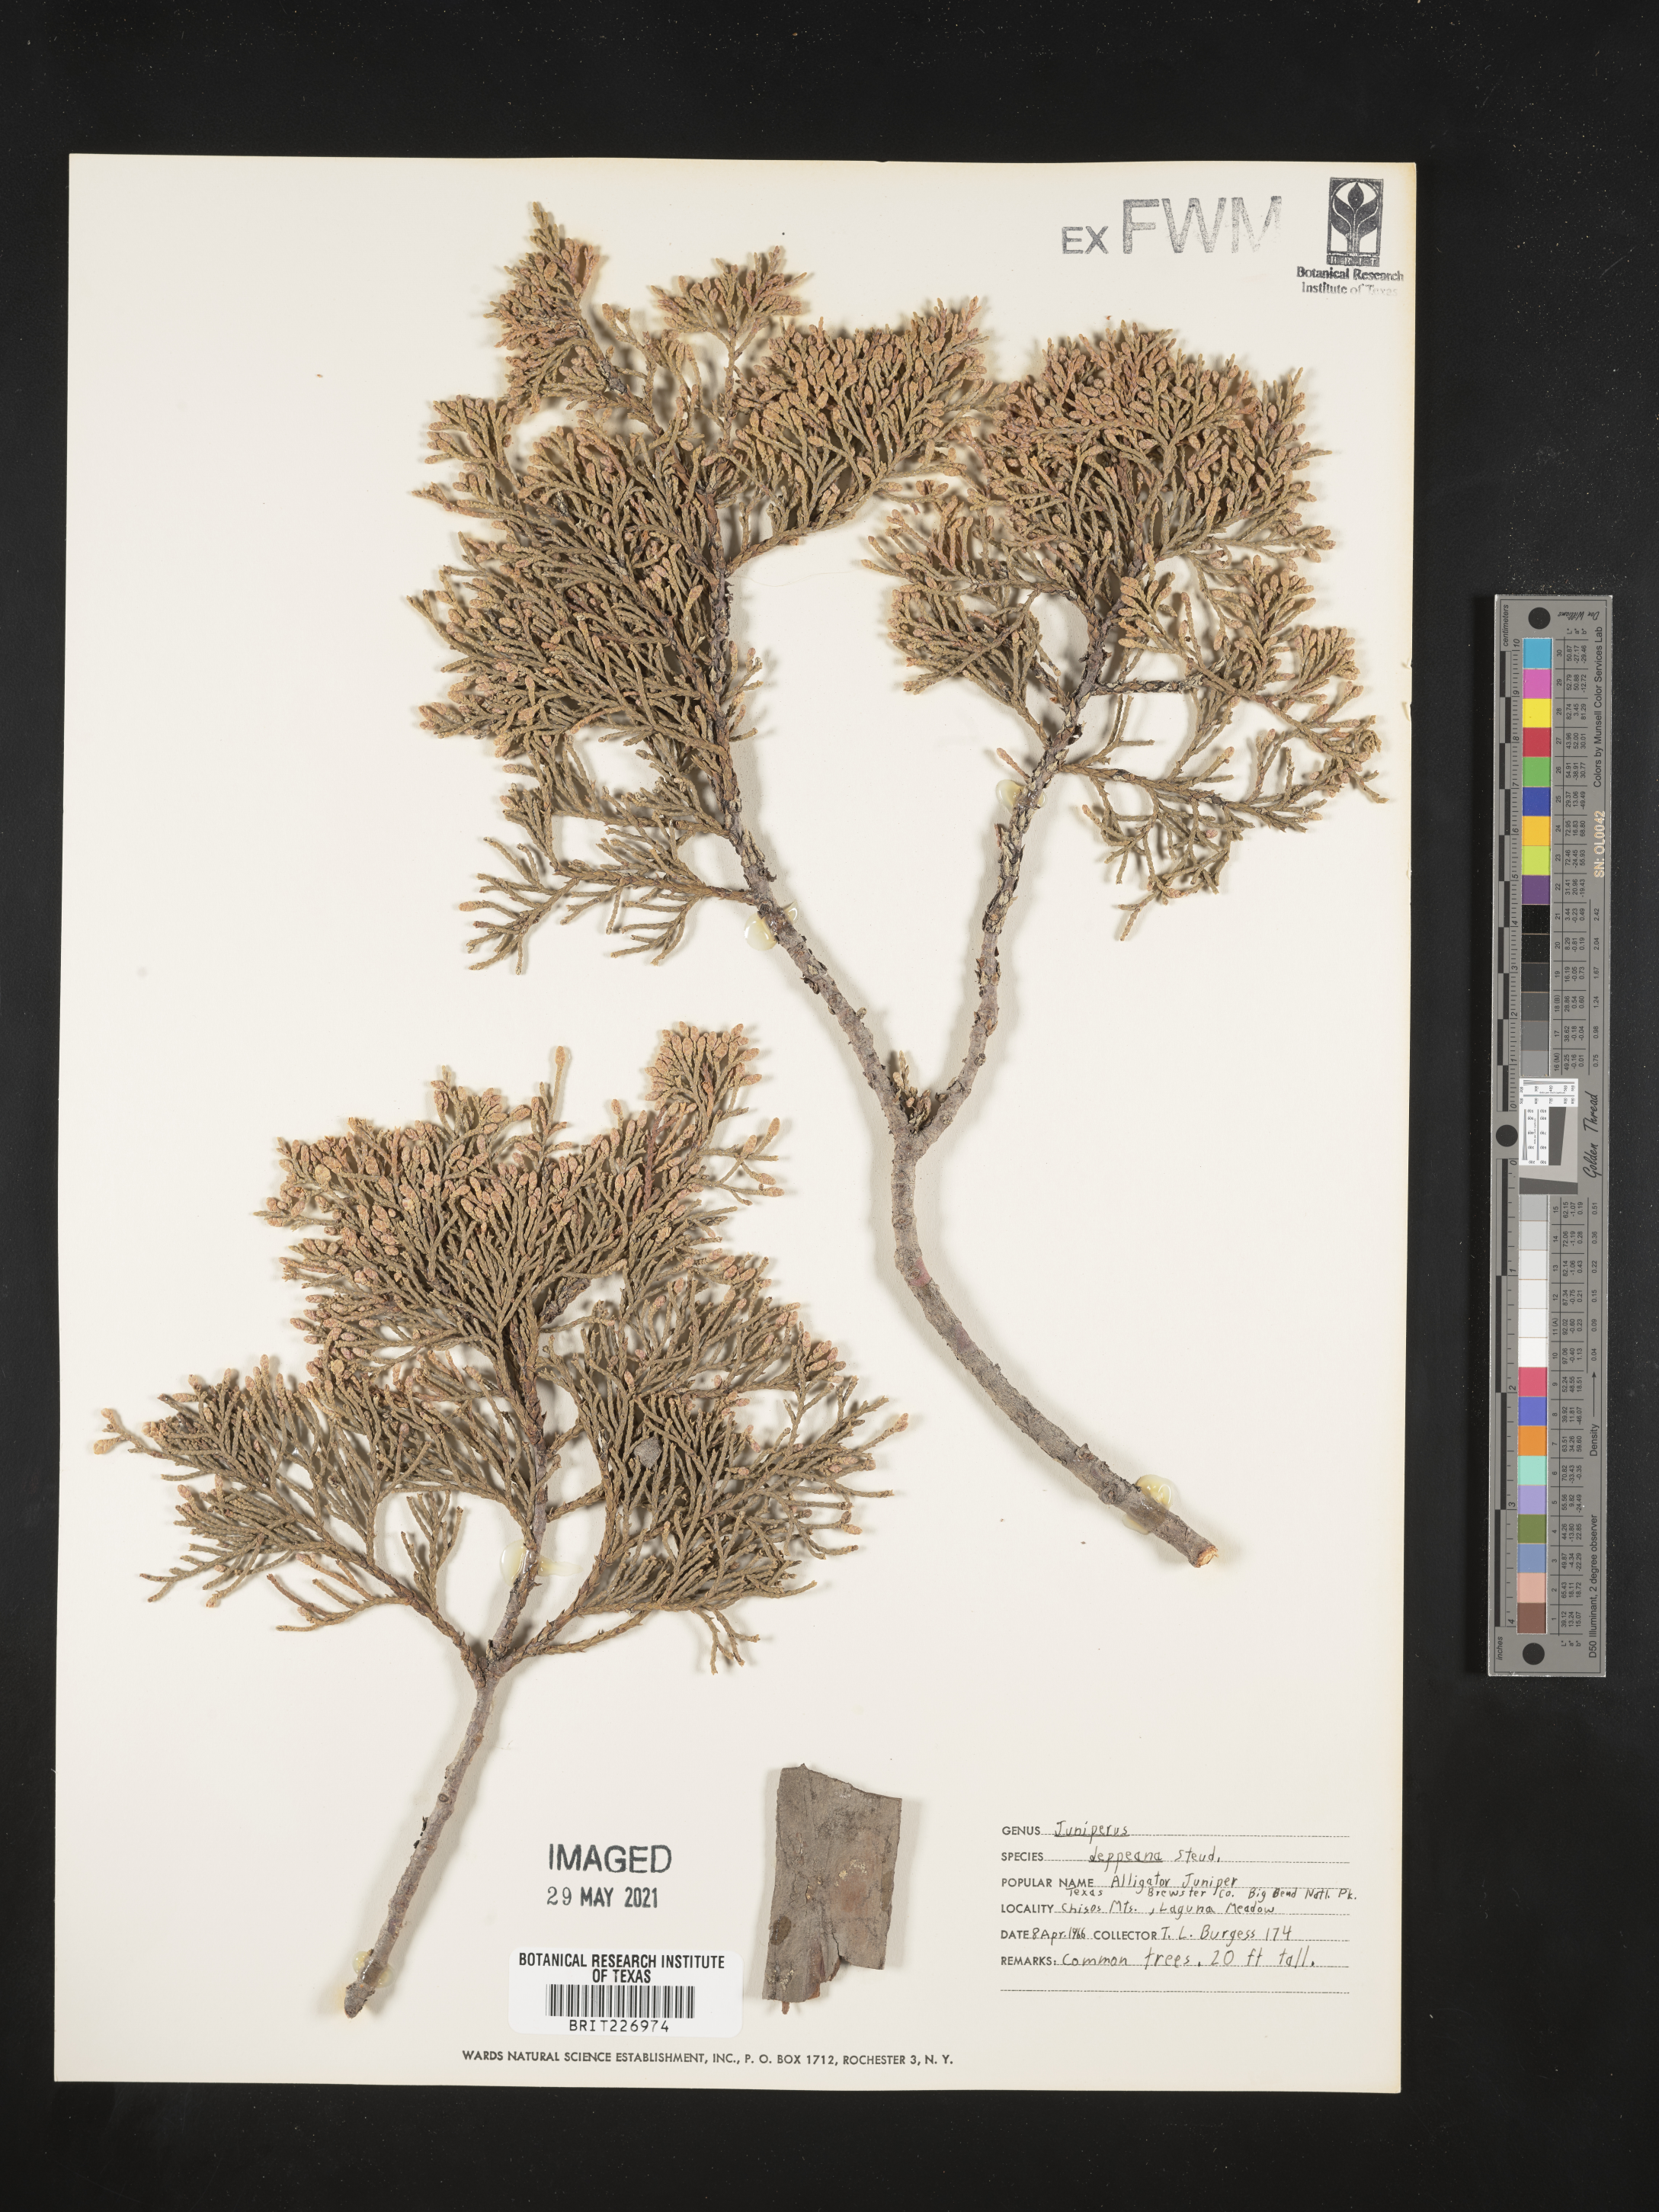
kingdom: Plantae
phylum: Tracheophyta
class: Pinopsida
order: Pinales
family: Cupressaceae
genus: Juniperus
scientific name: Juniperus deppeana
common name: Alligator juniper
